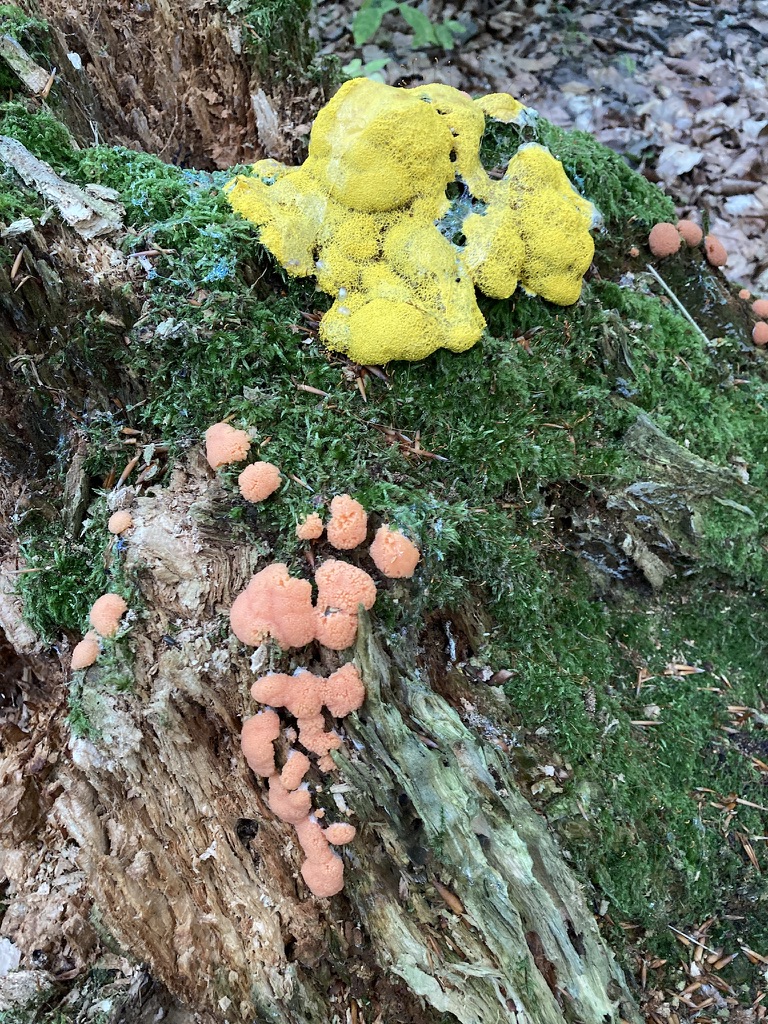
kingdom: Protozoa
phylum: Mycetozoa
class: Myxomycetes
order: Physarales
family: Physaraceae
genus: Fuligo
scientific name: Fuligo septica
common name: gul troldsmør
